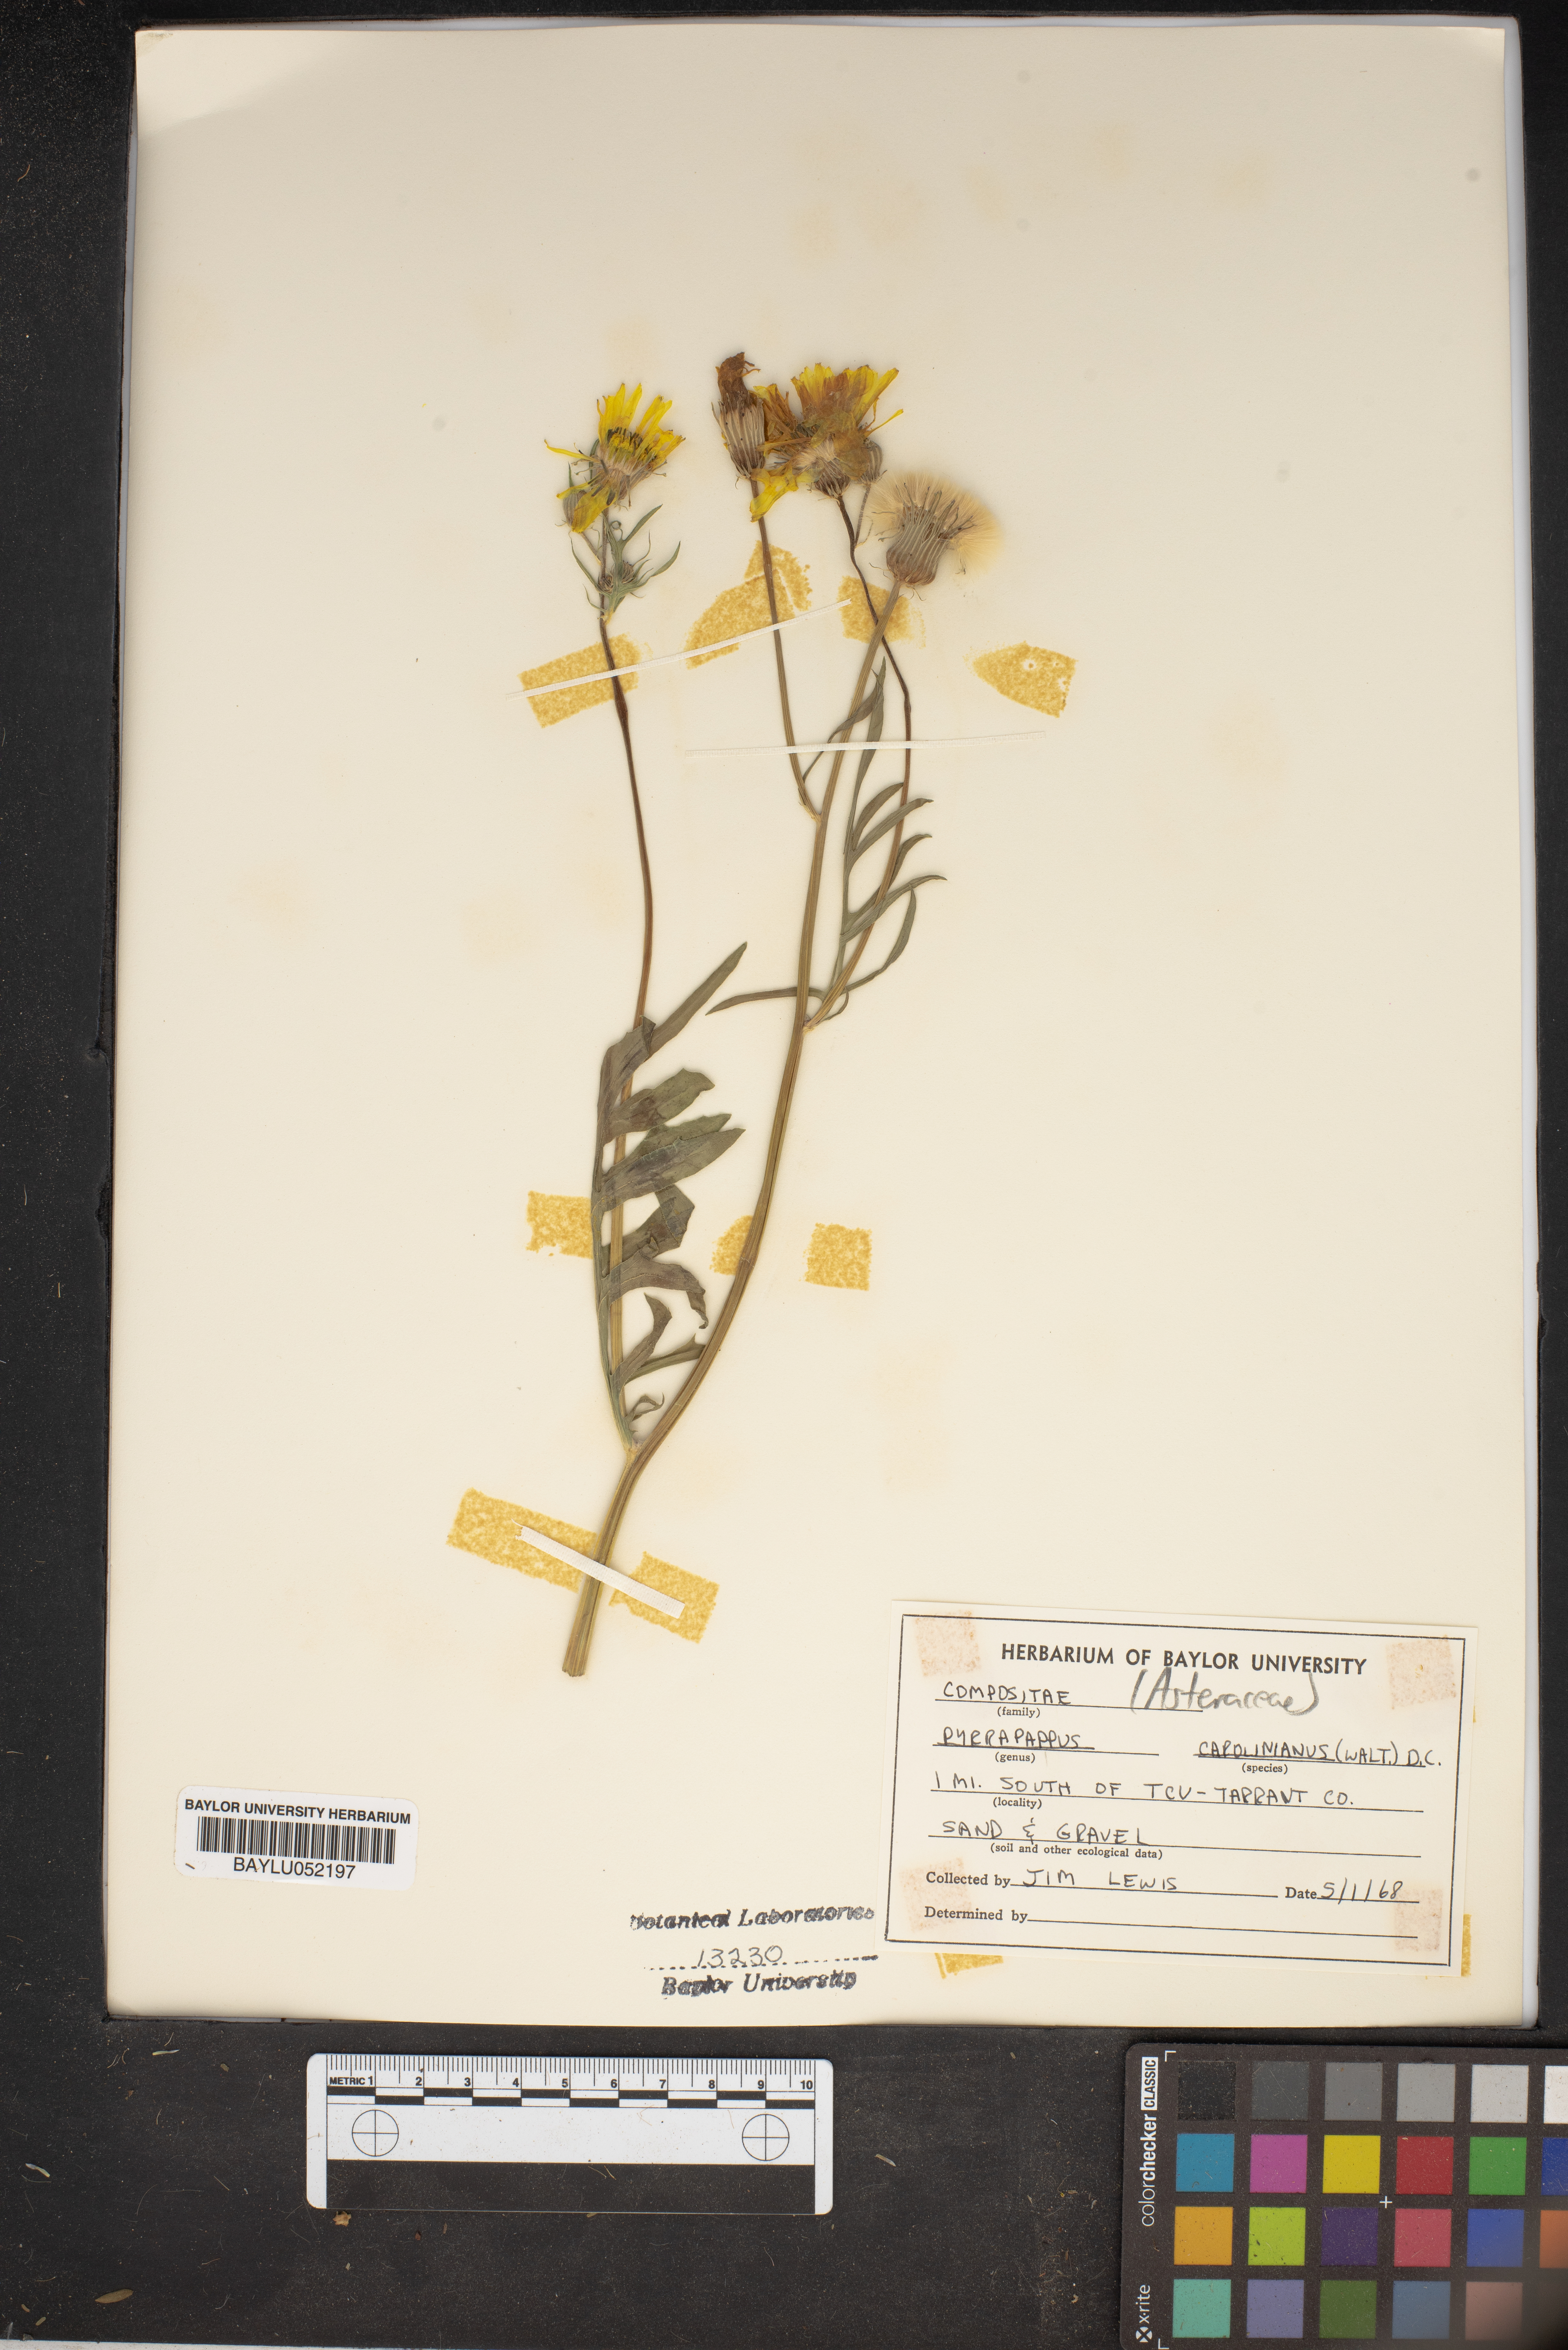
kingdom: Plantae
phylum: Tracheophyta
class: Magnoliopsida
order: Asterales
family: Asteraceae
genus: Pyrrhopappus
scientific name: Pyrrhopappus carolinianus
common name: Carolina desert-chicory
